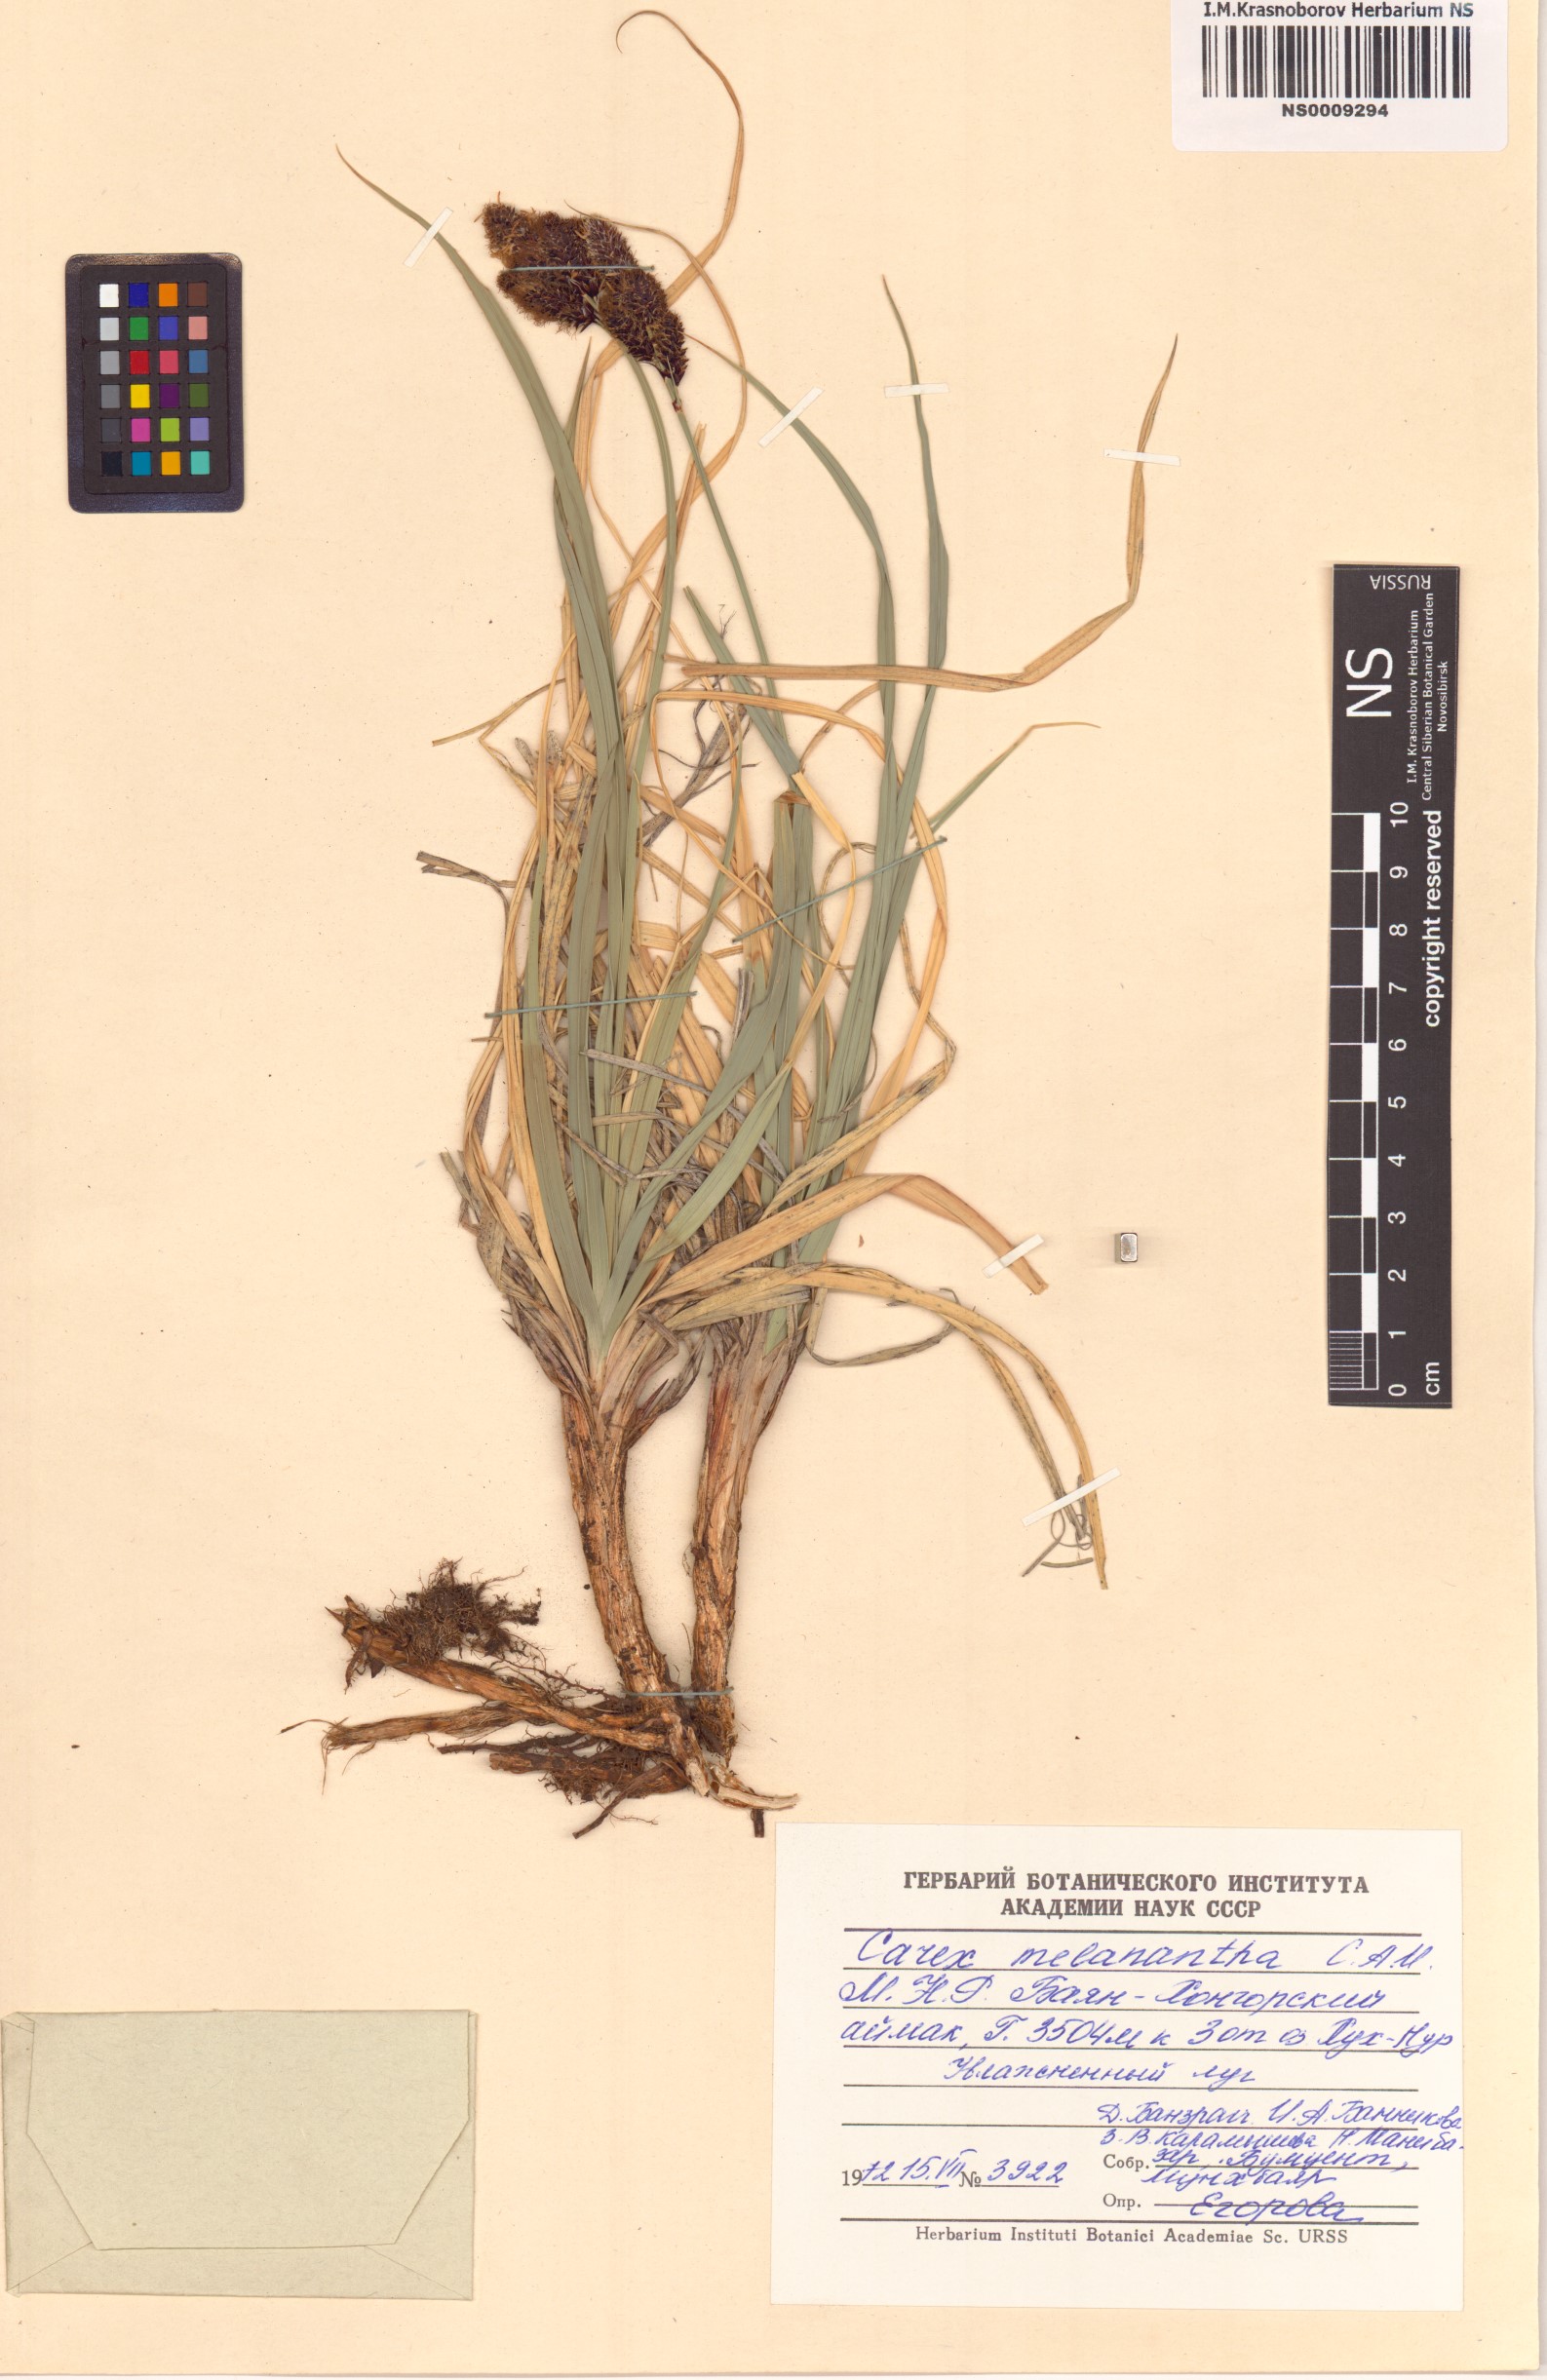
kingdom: Plantae
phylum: Tracheophyta
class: Liliopsida
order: Poales
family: Cyperaceae
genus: Carex
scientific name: Carex melanantha
